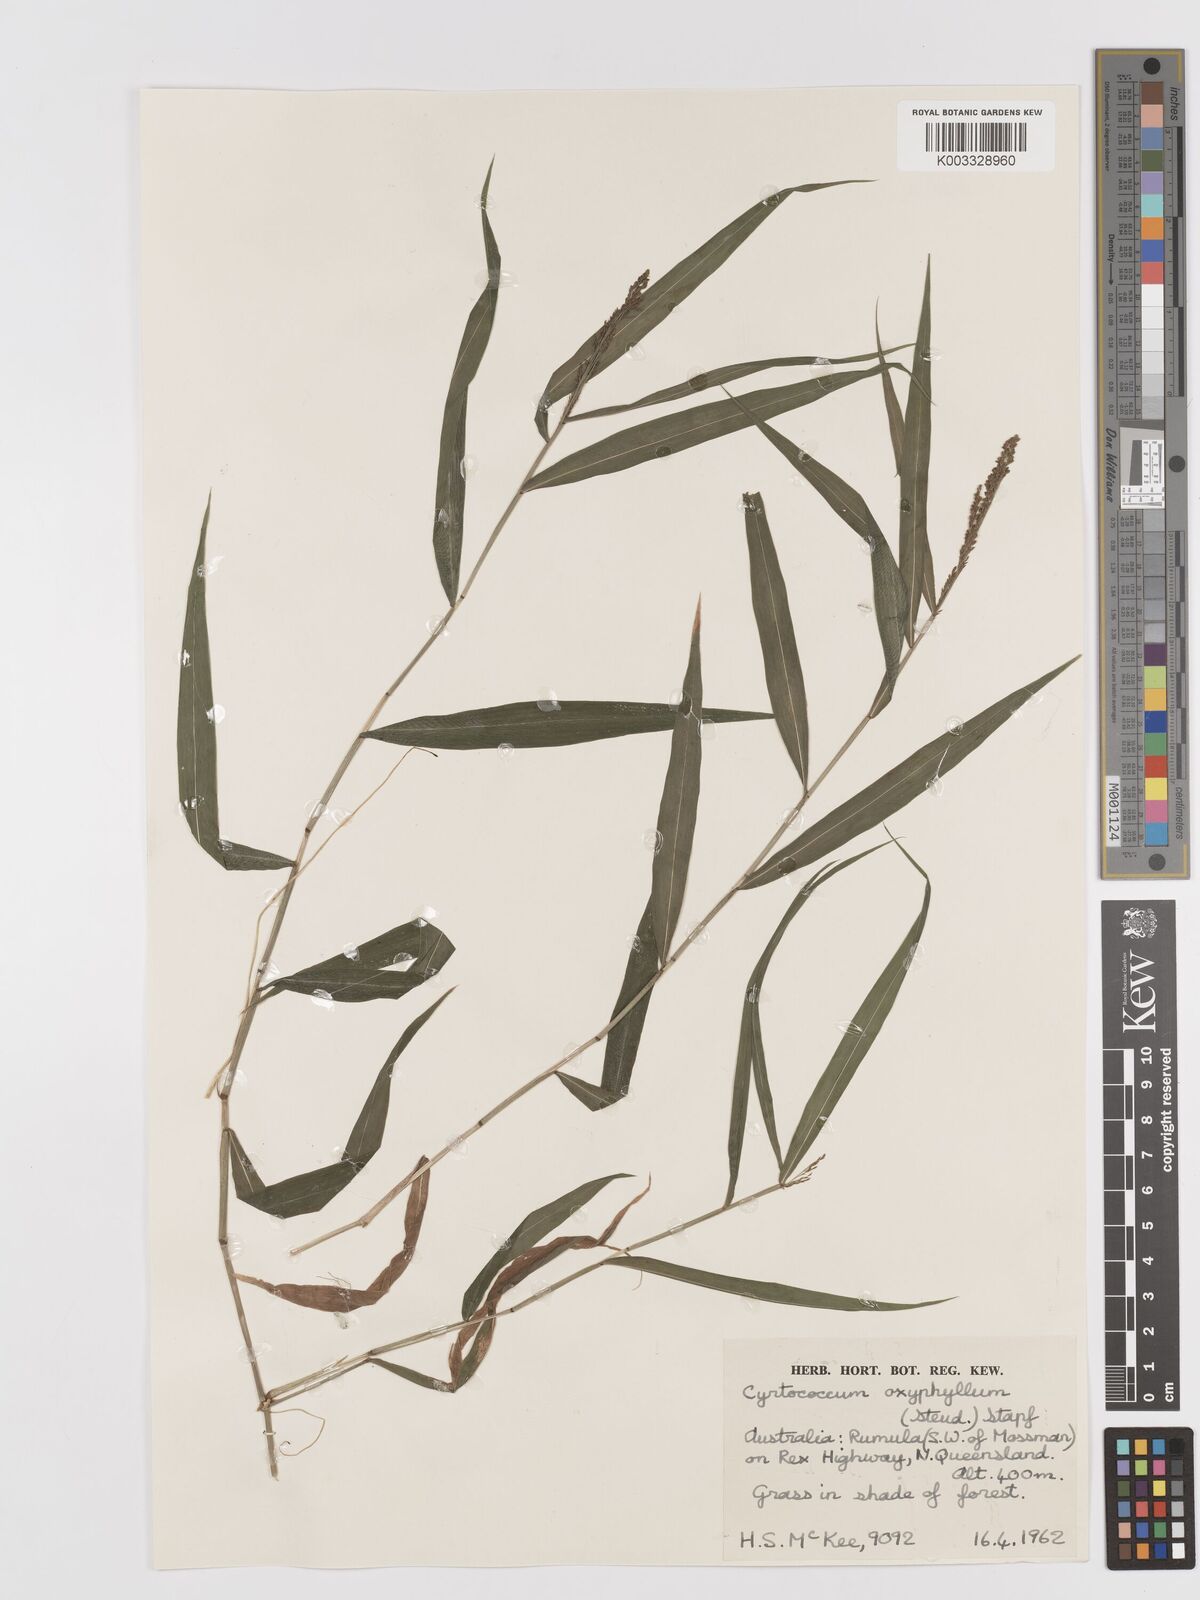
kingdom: Plantae
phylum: Tracheophyta
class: Liliopsida
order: Poales
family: Poaceae
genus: Cyrtococcum
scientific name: Cyrtococcum oxyphyllum
